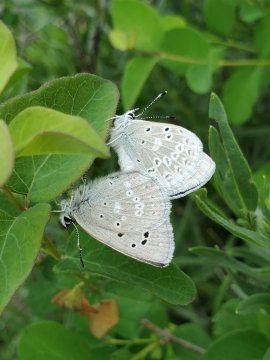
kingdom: Animalia
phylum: Arthropoda
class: Insecta
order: Lepidoptera
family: Lycaenidae
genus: Icaricia
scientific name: Icaricia icarioides
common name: Boisduval's Blue
